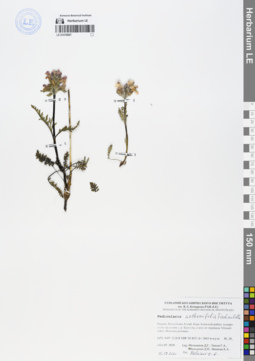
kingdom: Plantae
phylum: Tracheophyta
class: Magnoliopsida
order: Lamiales
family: Orobanchaceae
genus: Pedicularis
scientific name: Pedicularis anthemifolia
